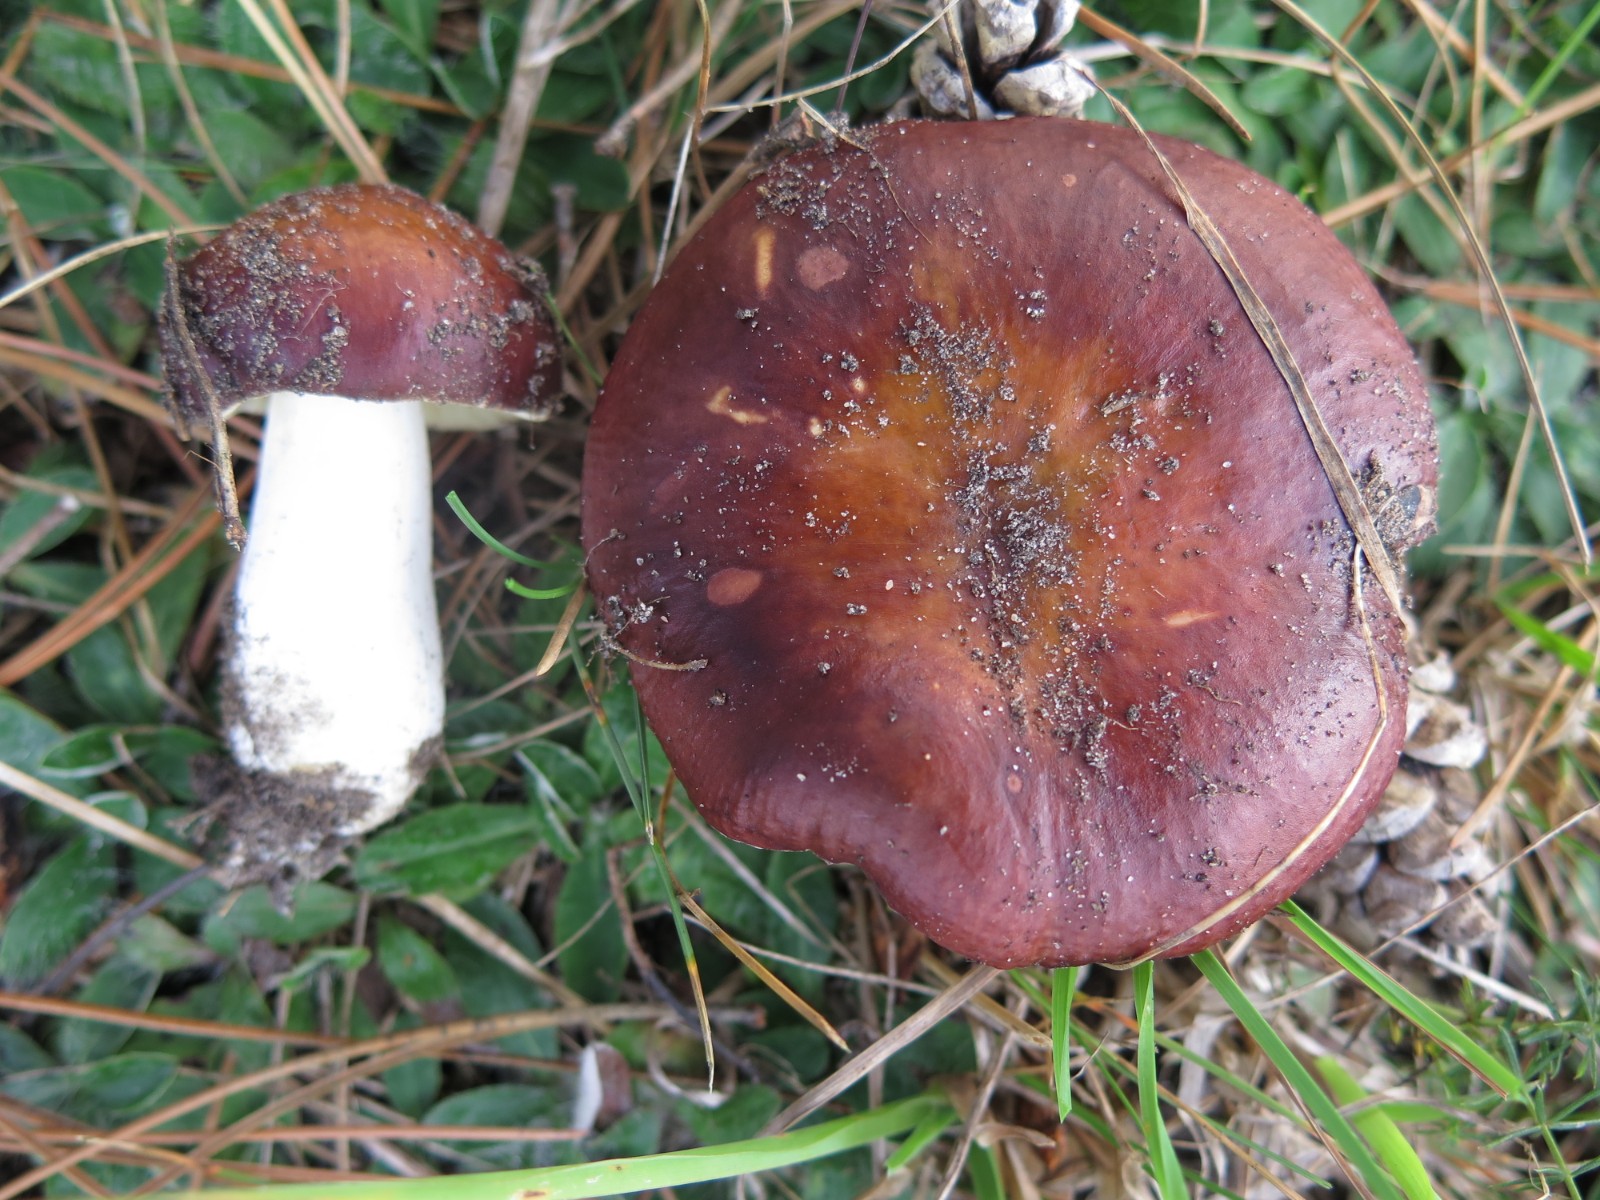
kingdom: Fungi
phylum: Basidiomycota
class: Agaricomycetes
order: Russulales
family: Russulaceae
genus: Russula
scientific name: Russula paludosa
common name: prægtig skørhat
